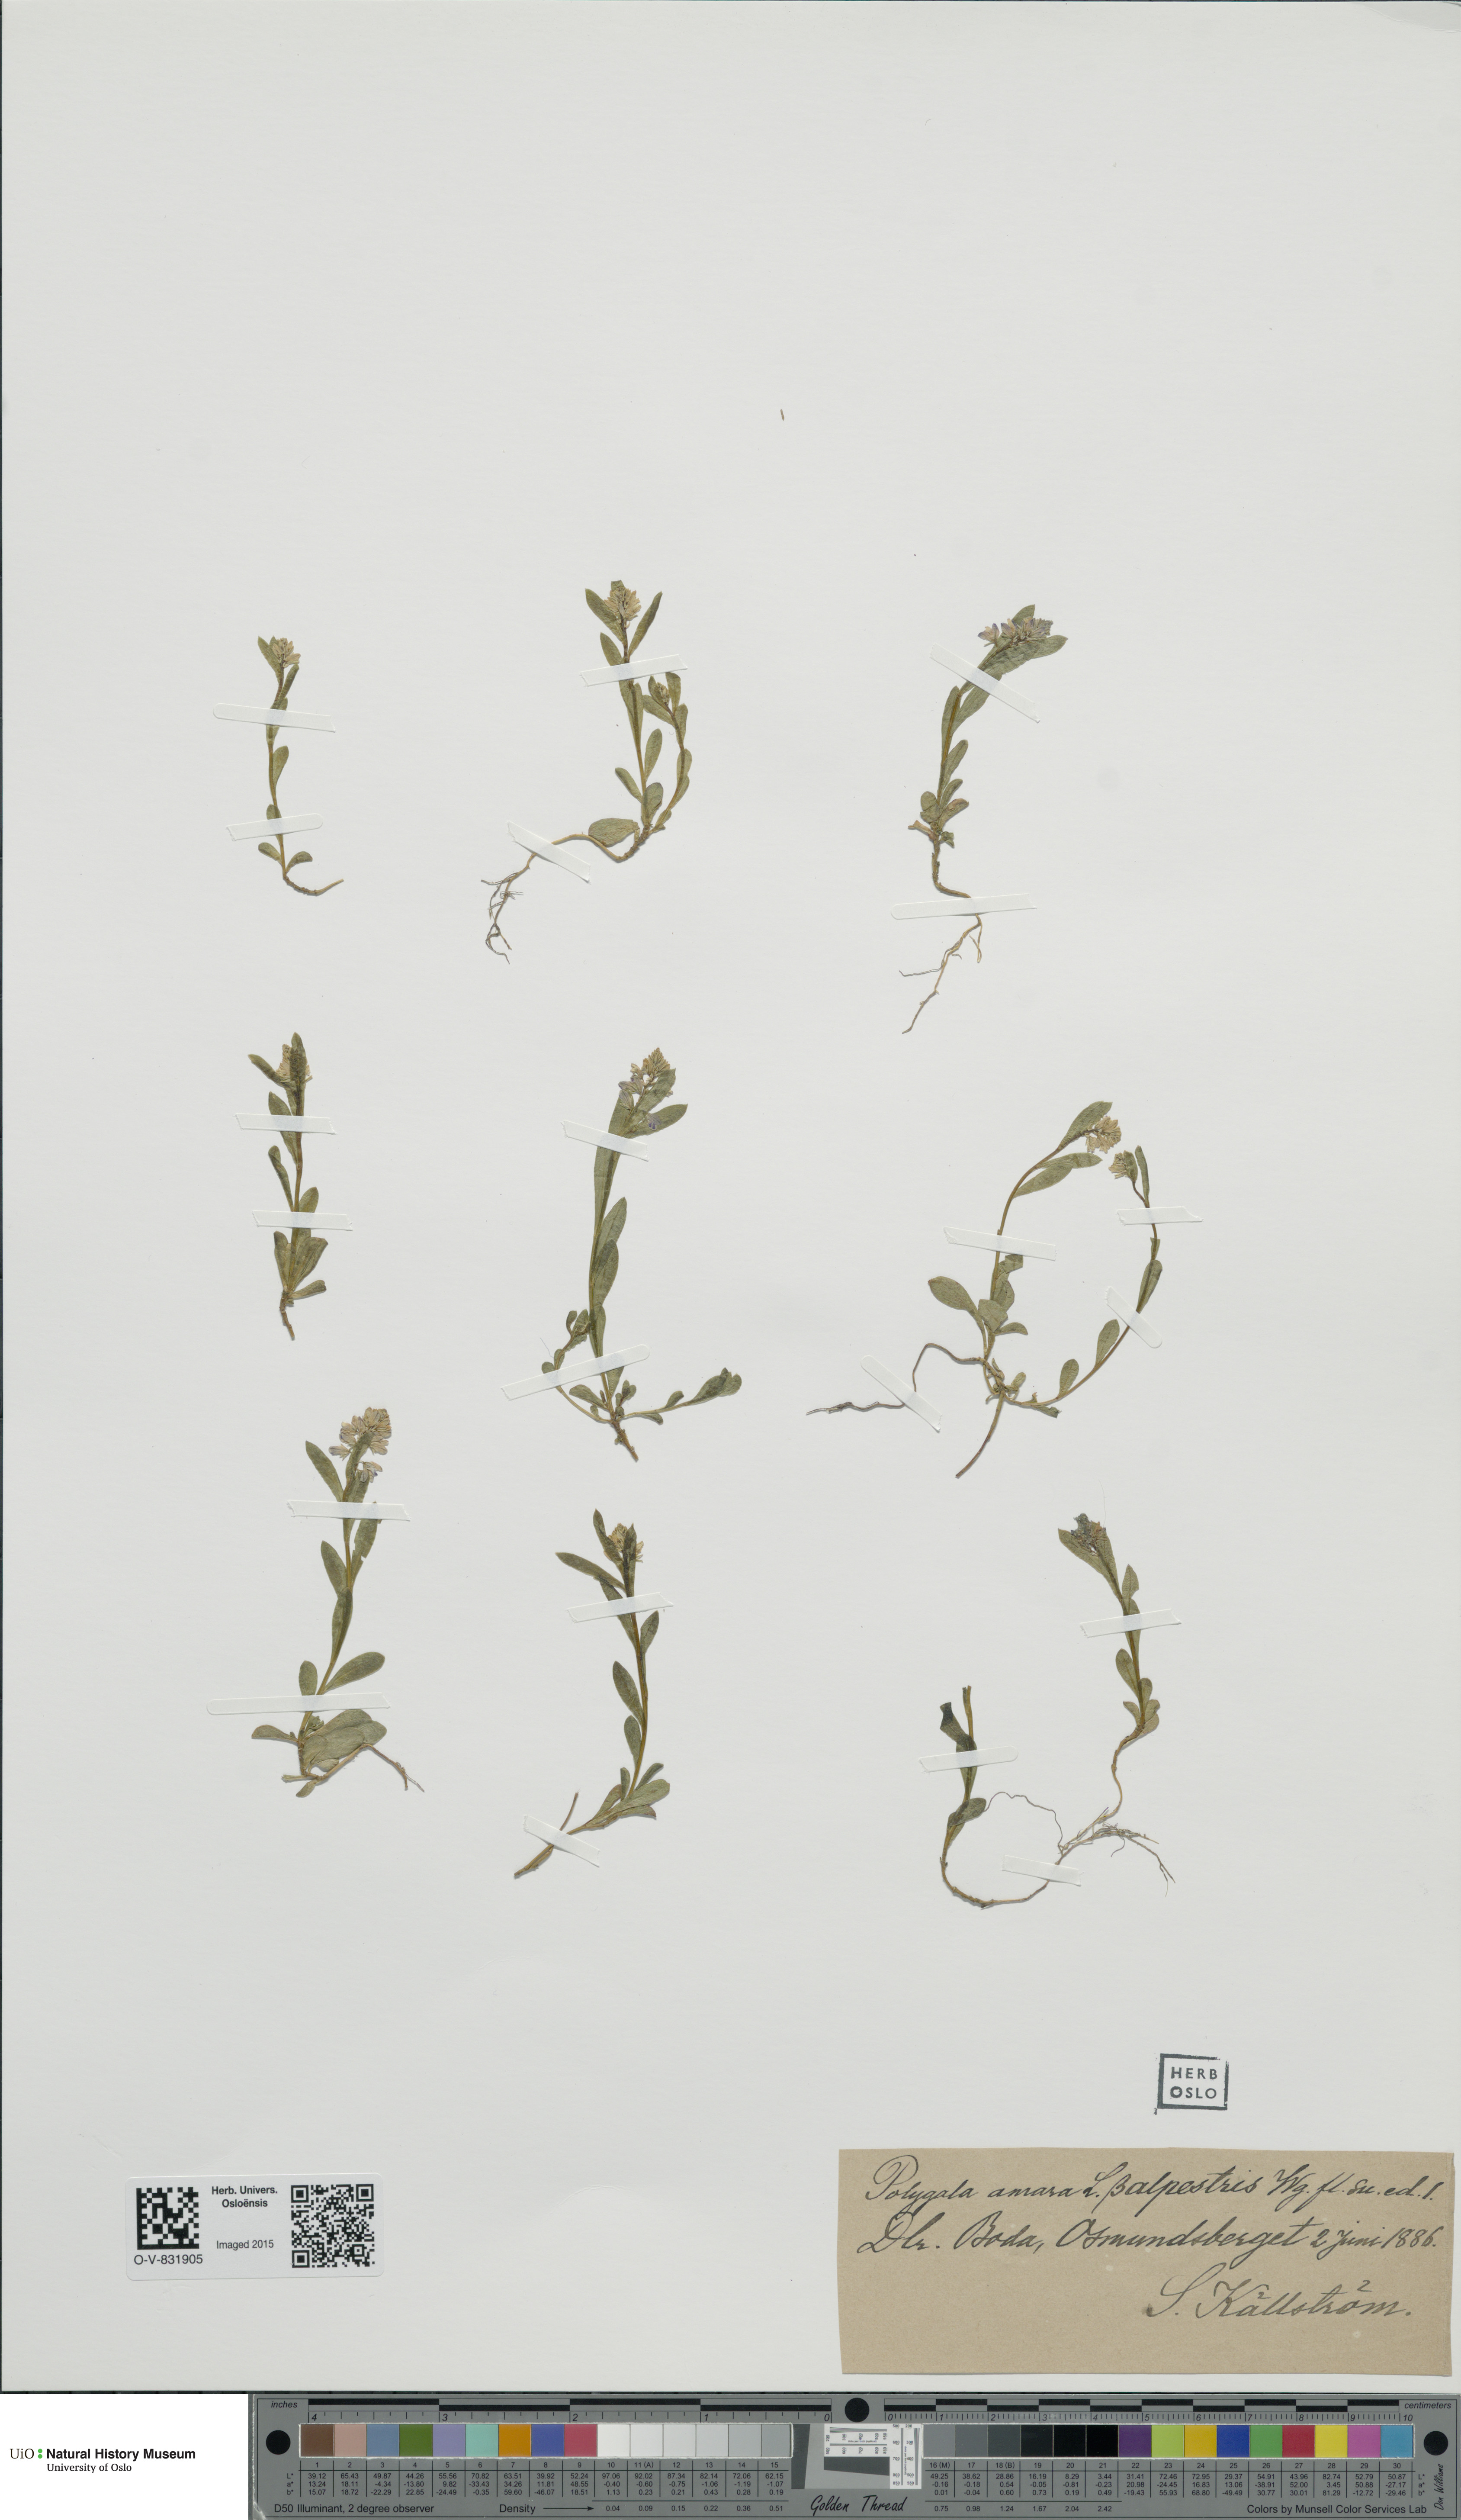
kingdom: Plantae
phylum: Tracheophyta
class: Magnoliopsida
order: Fabales
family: Polygalaceae
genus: Polygala
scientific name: Polygala amarella
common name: Dwarf milkwort
